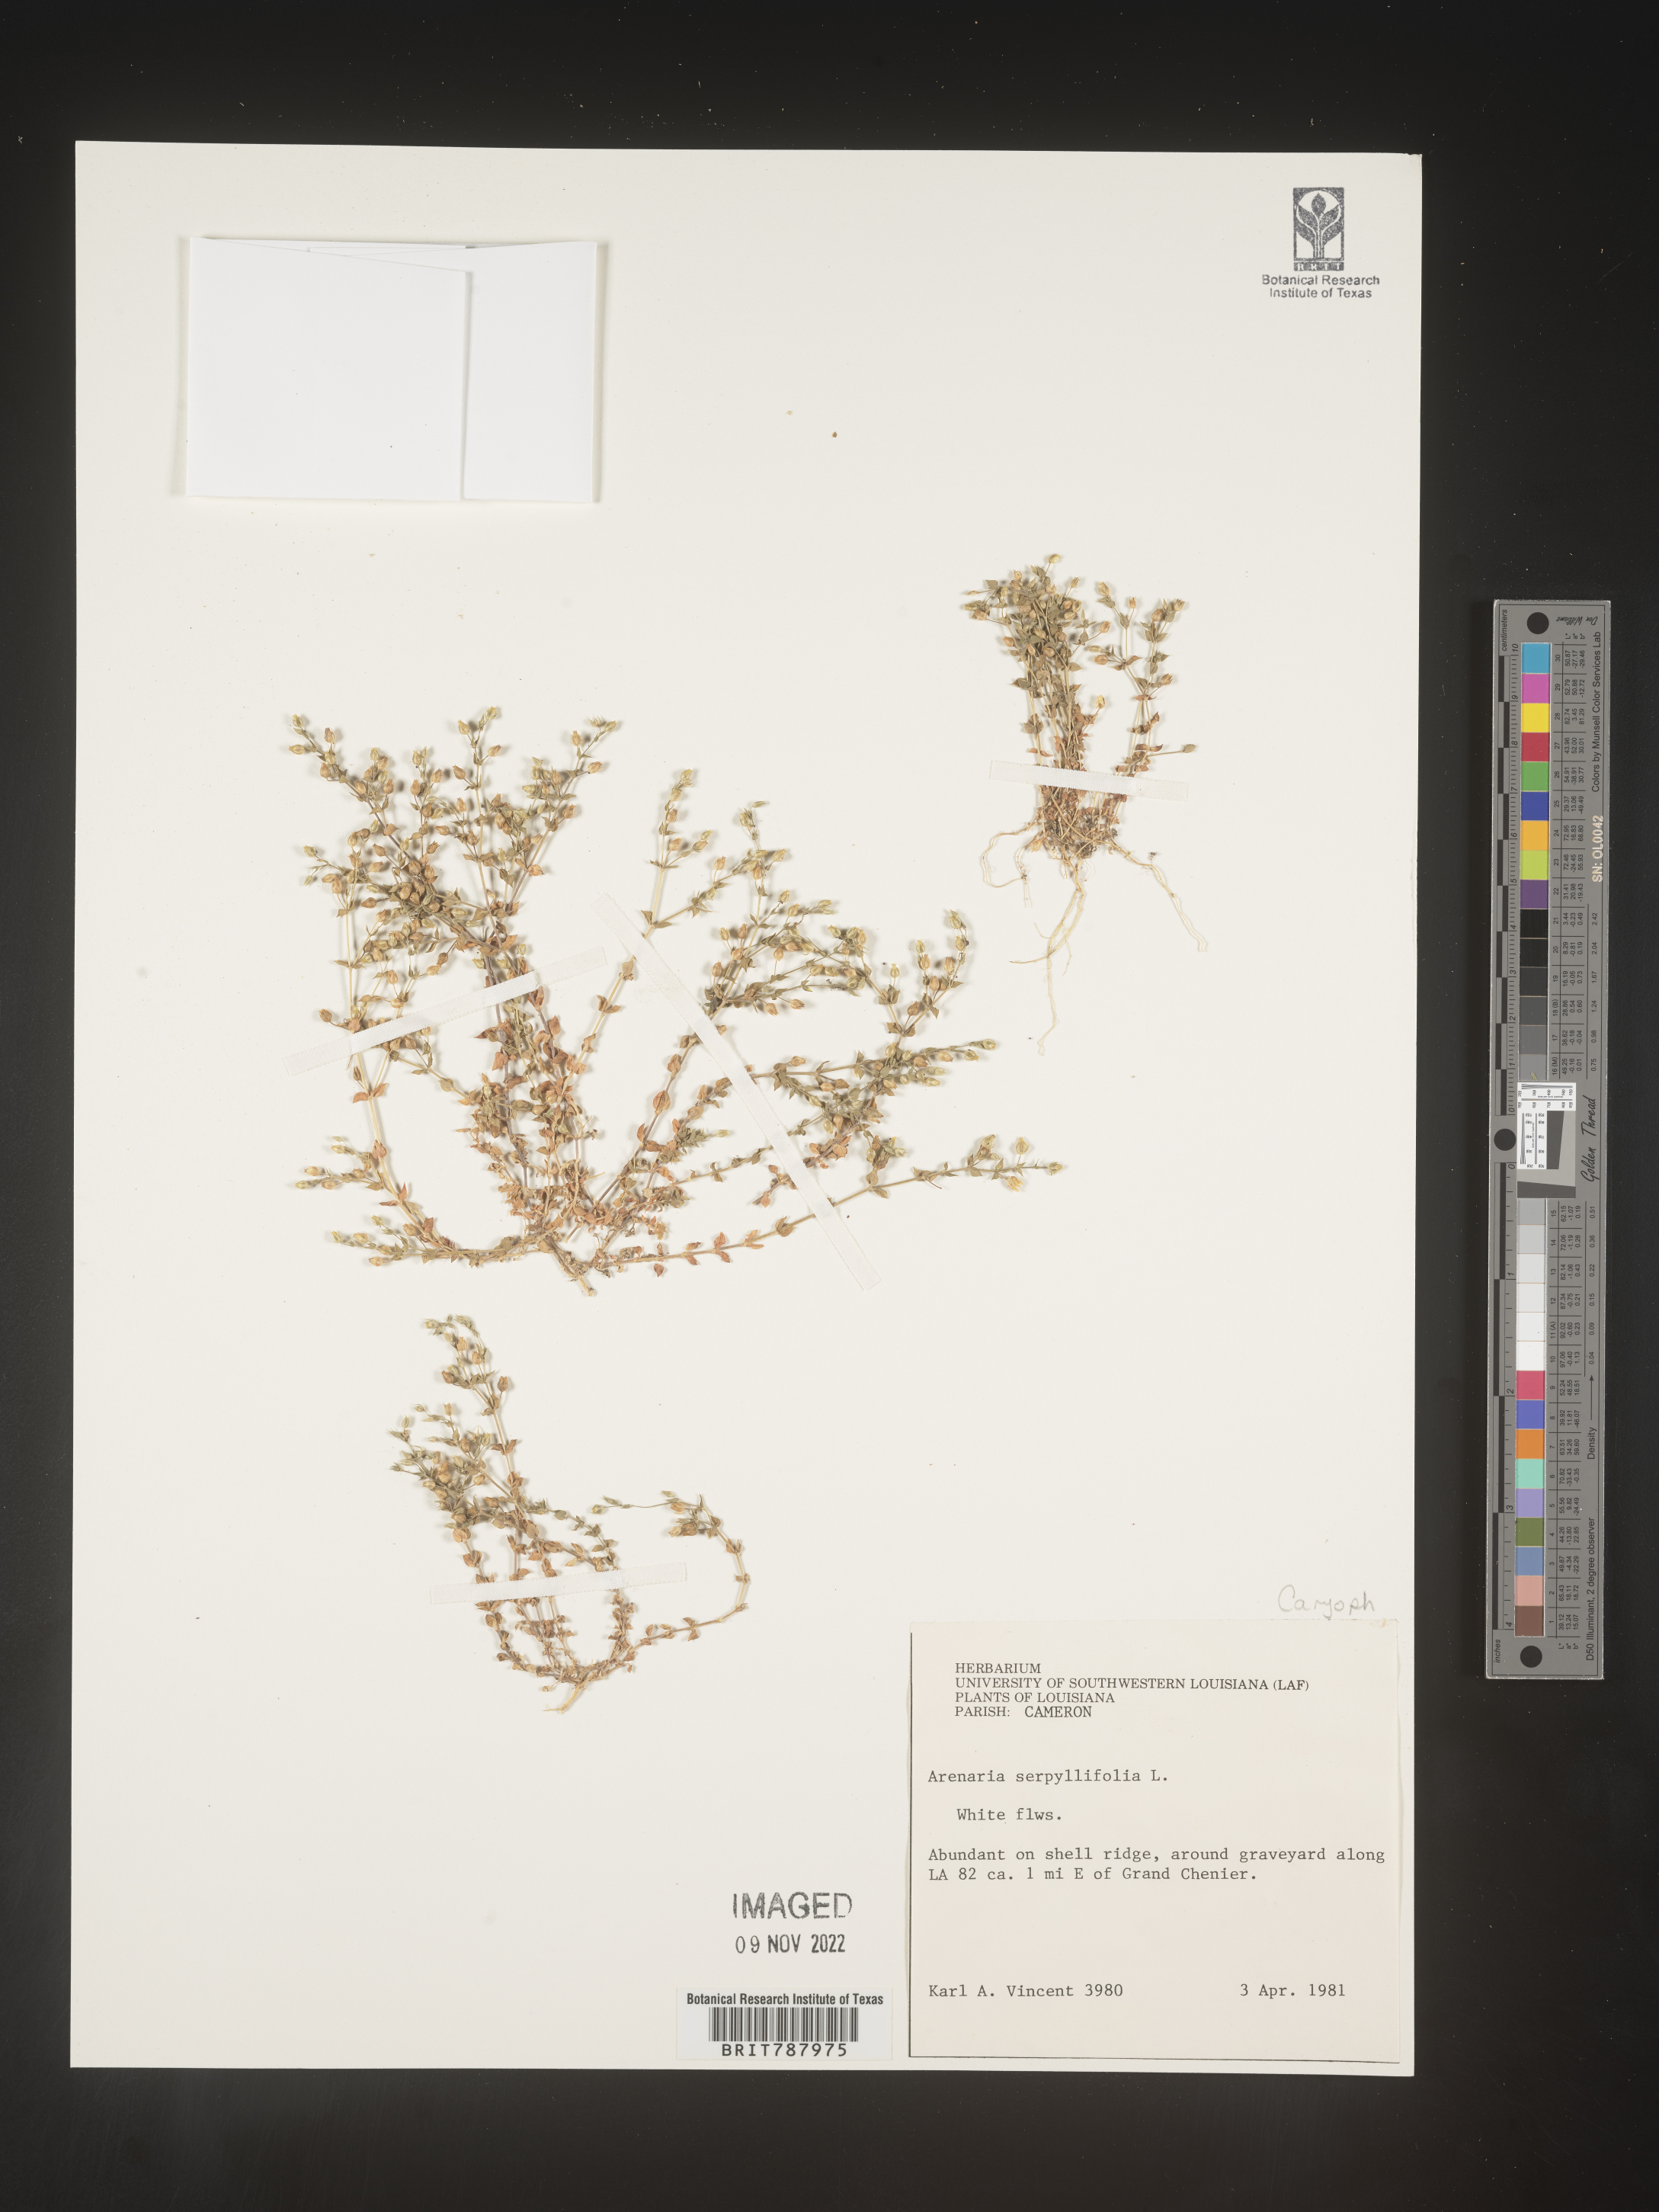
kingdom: Plantae
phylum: Tracheophyta
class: Magnoliopsida
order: Caryophyllales
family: Caryophyllaceae
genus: Arenaria
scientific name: Arenaria serpyllifolia
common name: Thyme-leaved sandwort
